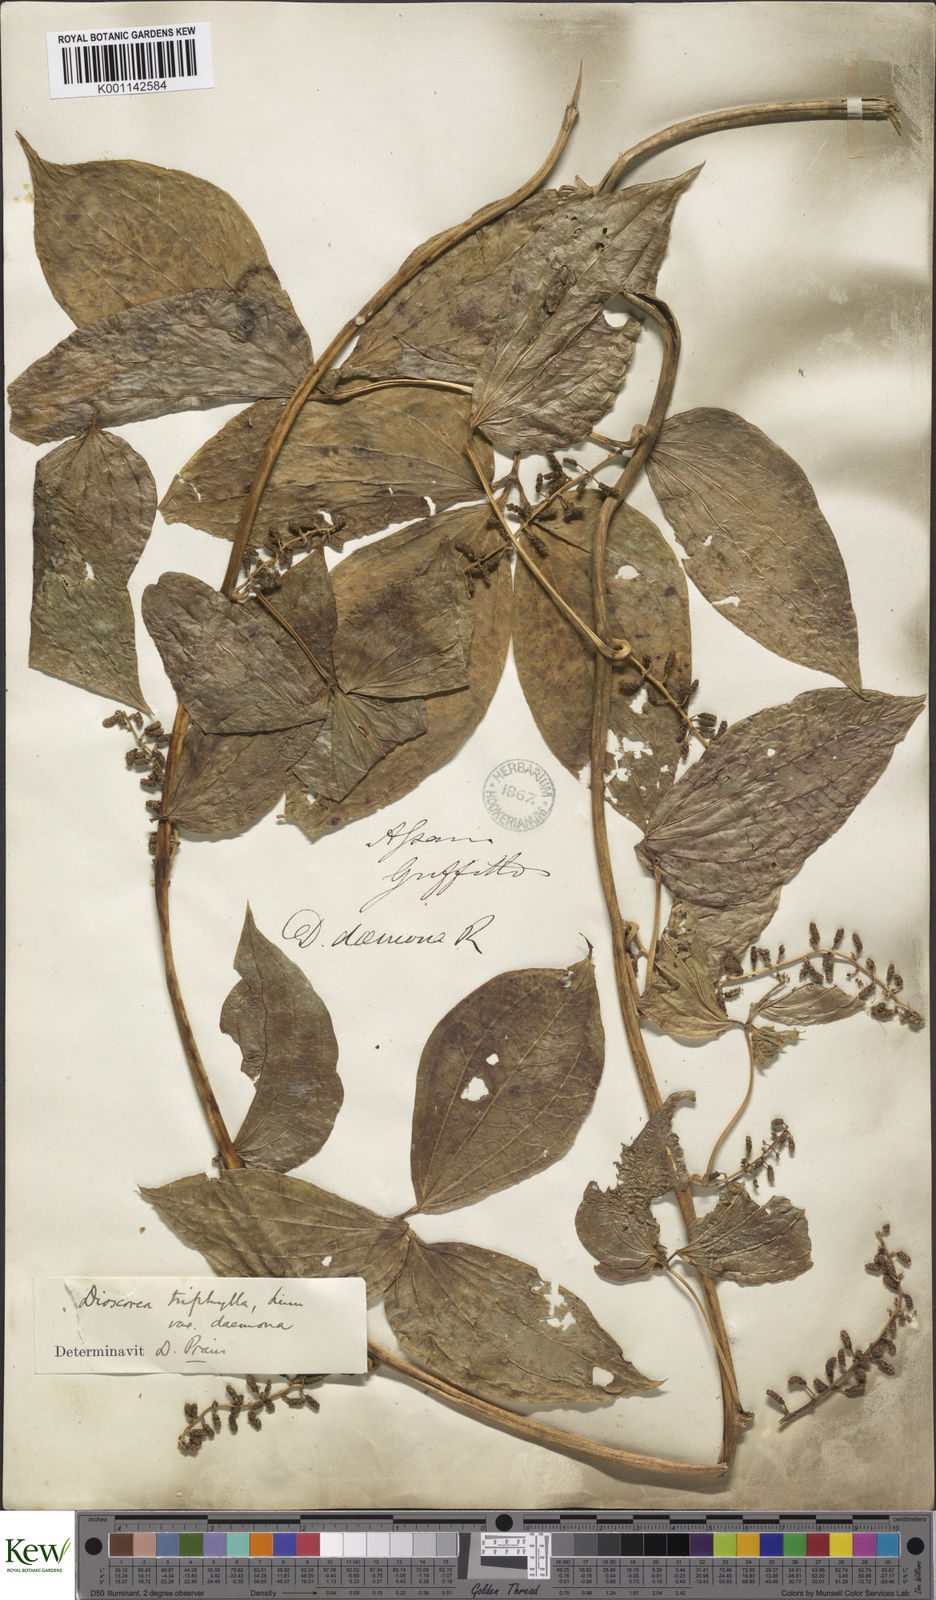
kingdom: Plantae
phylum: Tracheophyta
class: Liliopsida
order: Dioscoreales
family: Dioscoreaceae
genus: Dioscorea
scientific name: Dioscorea pentaphylla
